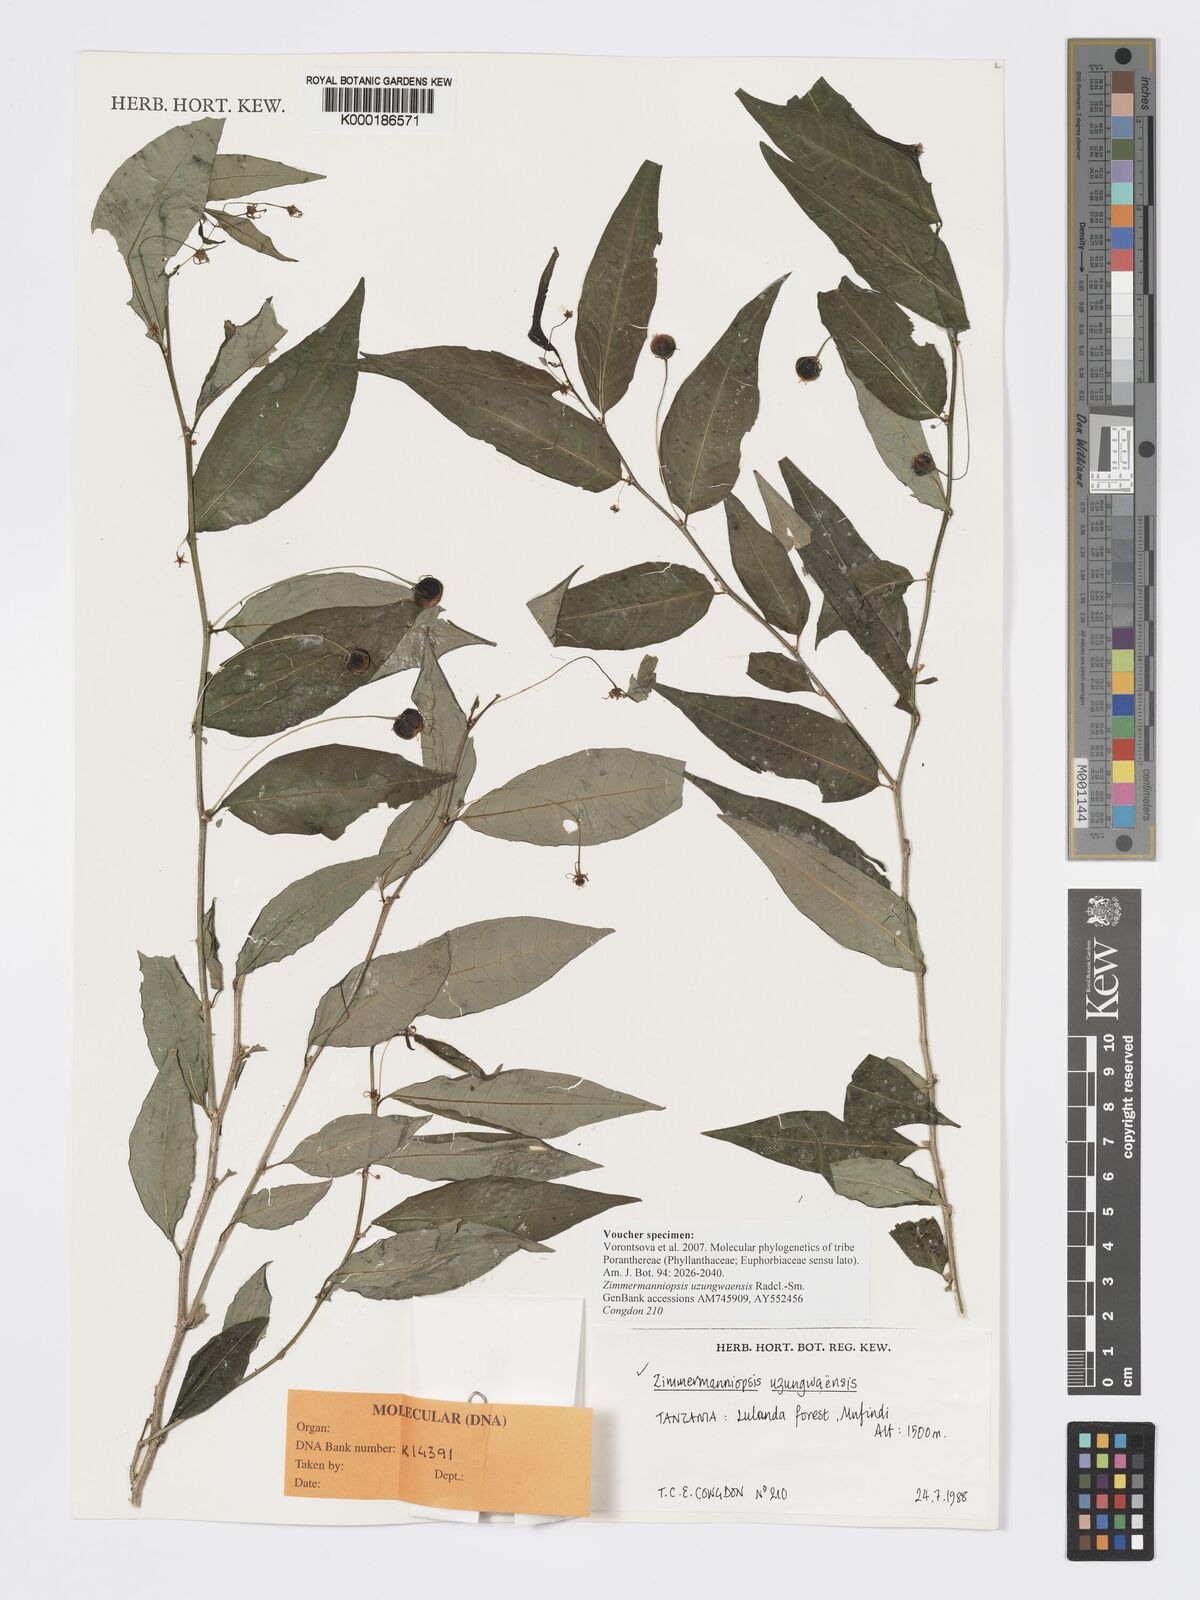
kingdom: Plantae
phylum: Tracheophyta
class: Magnoliopsida
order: Malpighiales
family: Phyllanthaceae
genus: Meineckia
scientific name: Meineckia uzungwaensis
